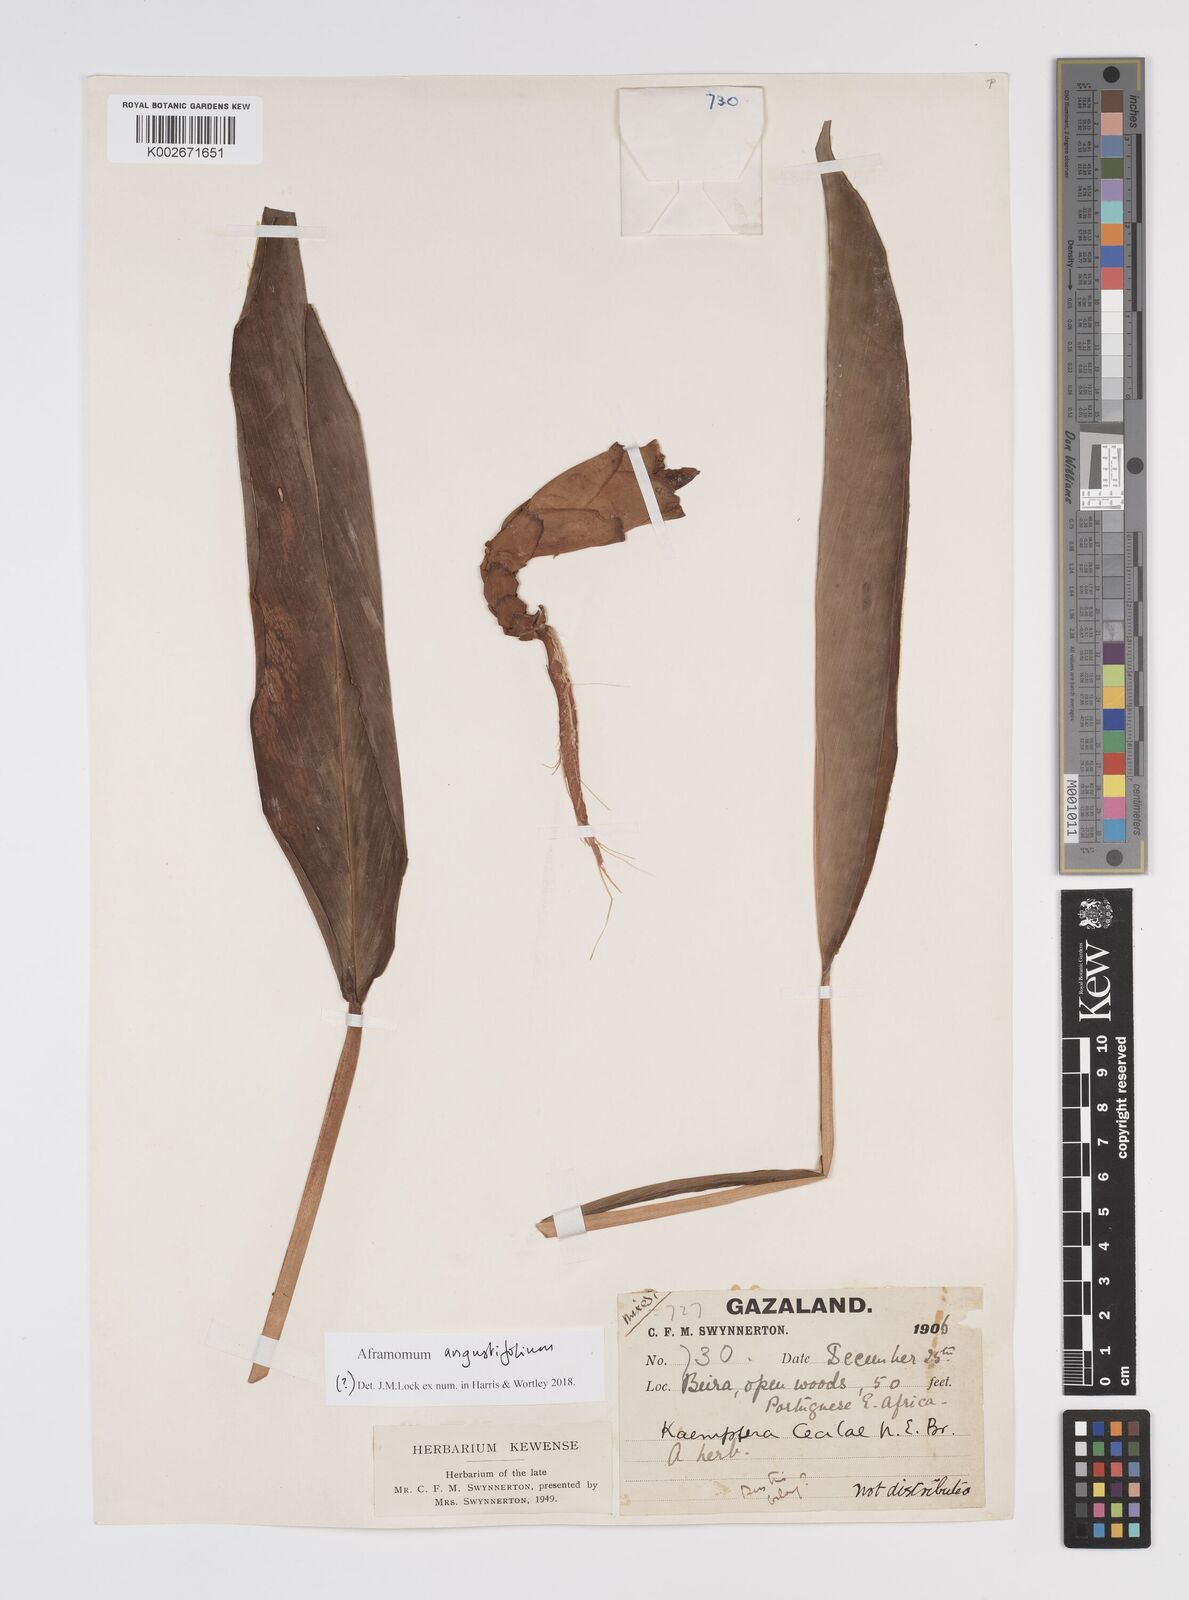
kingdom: Plantae
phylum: Tracheophyta
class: Liliopsida
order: Zingiberales
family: Zingiberaceae
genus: Aframomum
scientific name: Aframomum angustifolium
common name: Guinea grains
